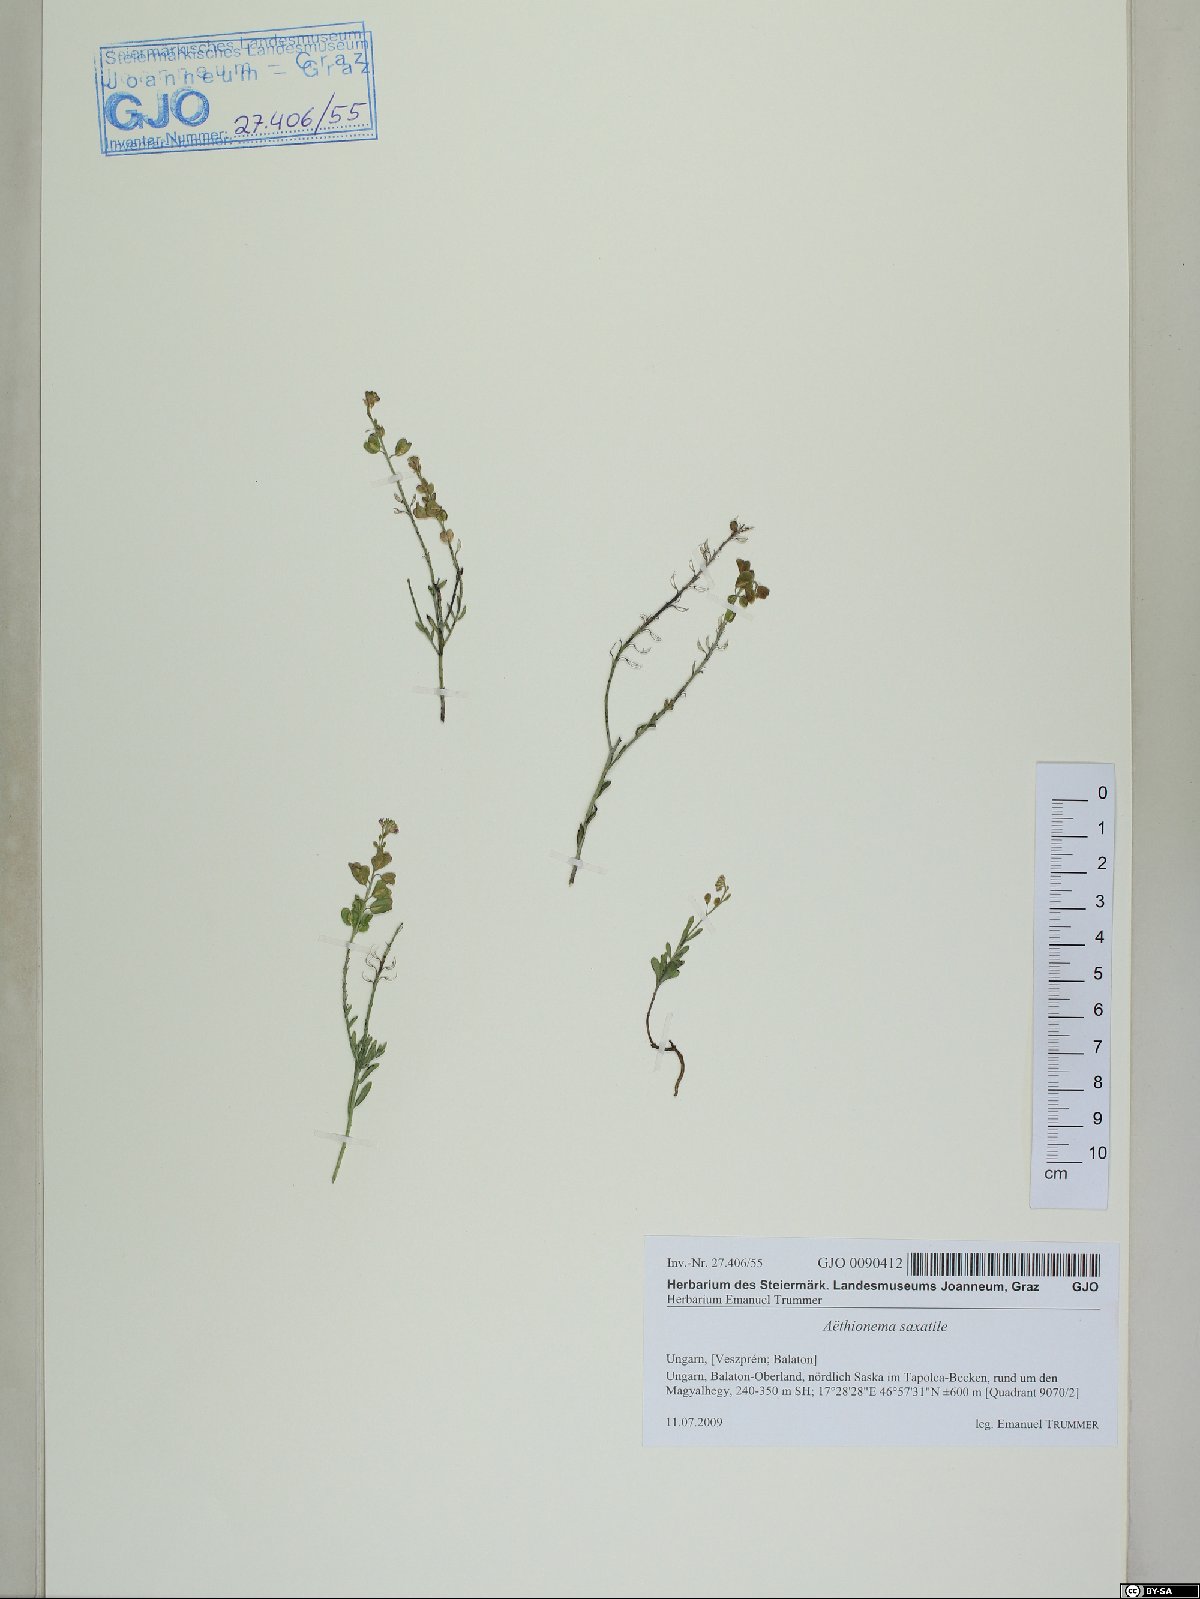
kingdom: Plantae
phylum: Tracheophyta
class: Magnoliopsida
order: Brassicales
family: Brassicaceae
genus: Aethionema
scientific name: Aethionema saxatile
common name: Burnt candytuft
